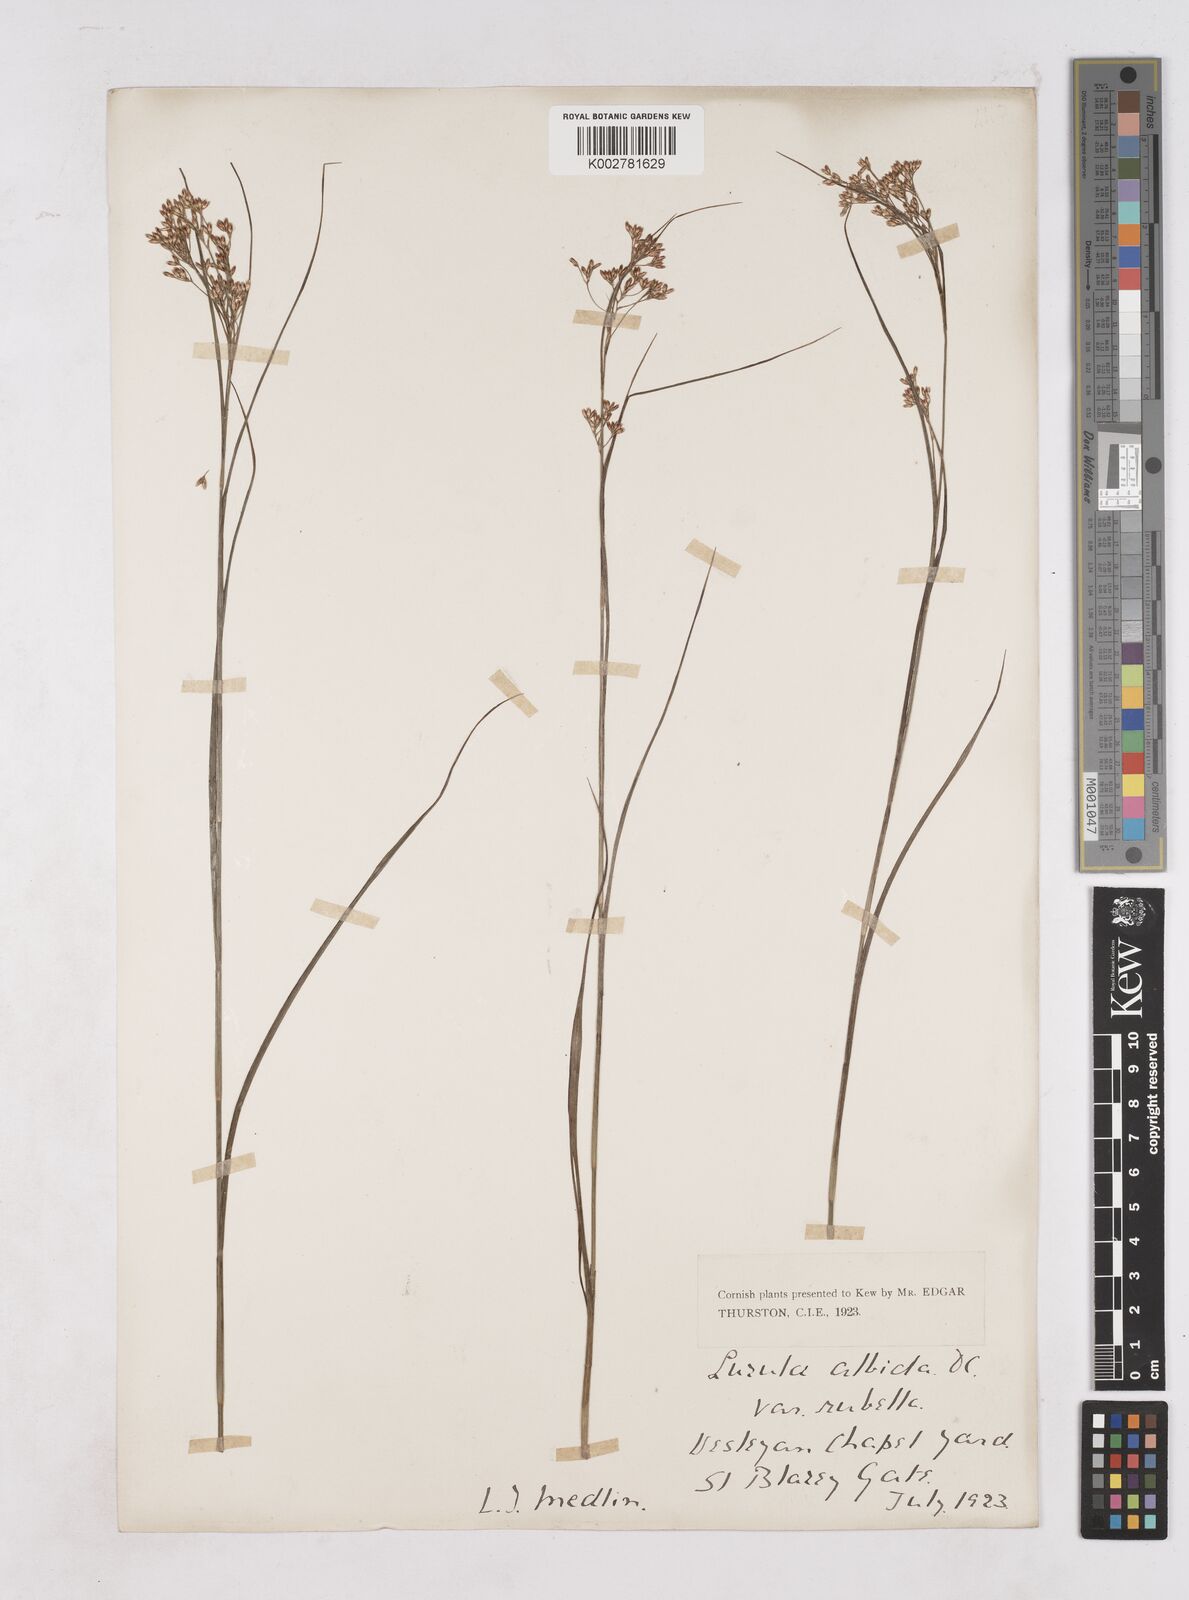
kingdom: Plantae
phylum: Tracheophyta
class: Liliopsida
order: Poales
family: Juncaceae
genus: Luzula
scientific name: Luzula luzuloides
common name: White wood-rush
